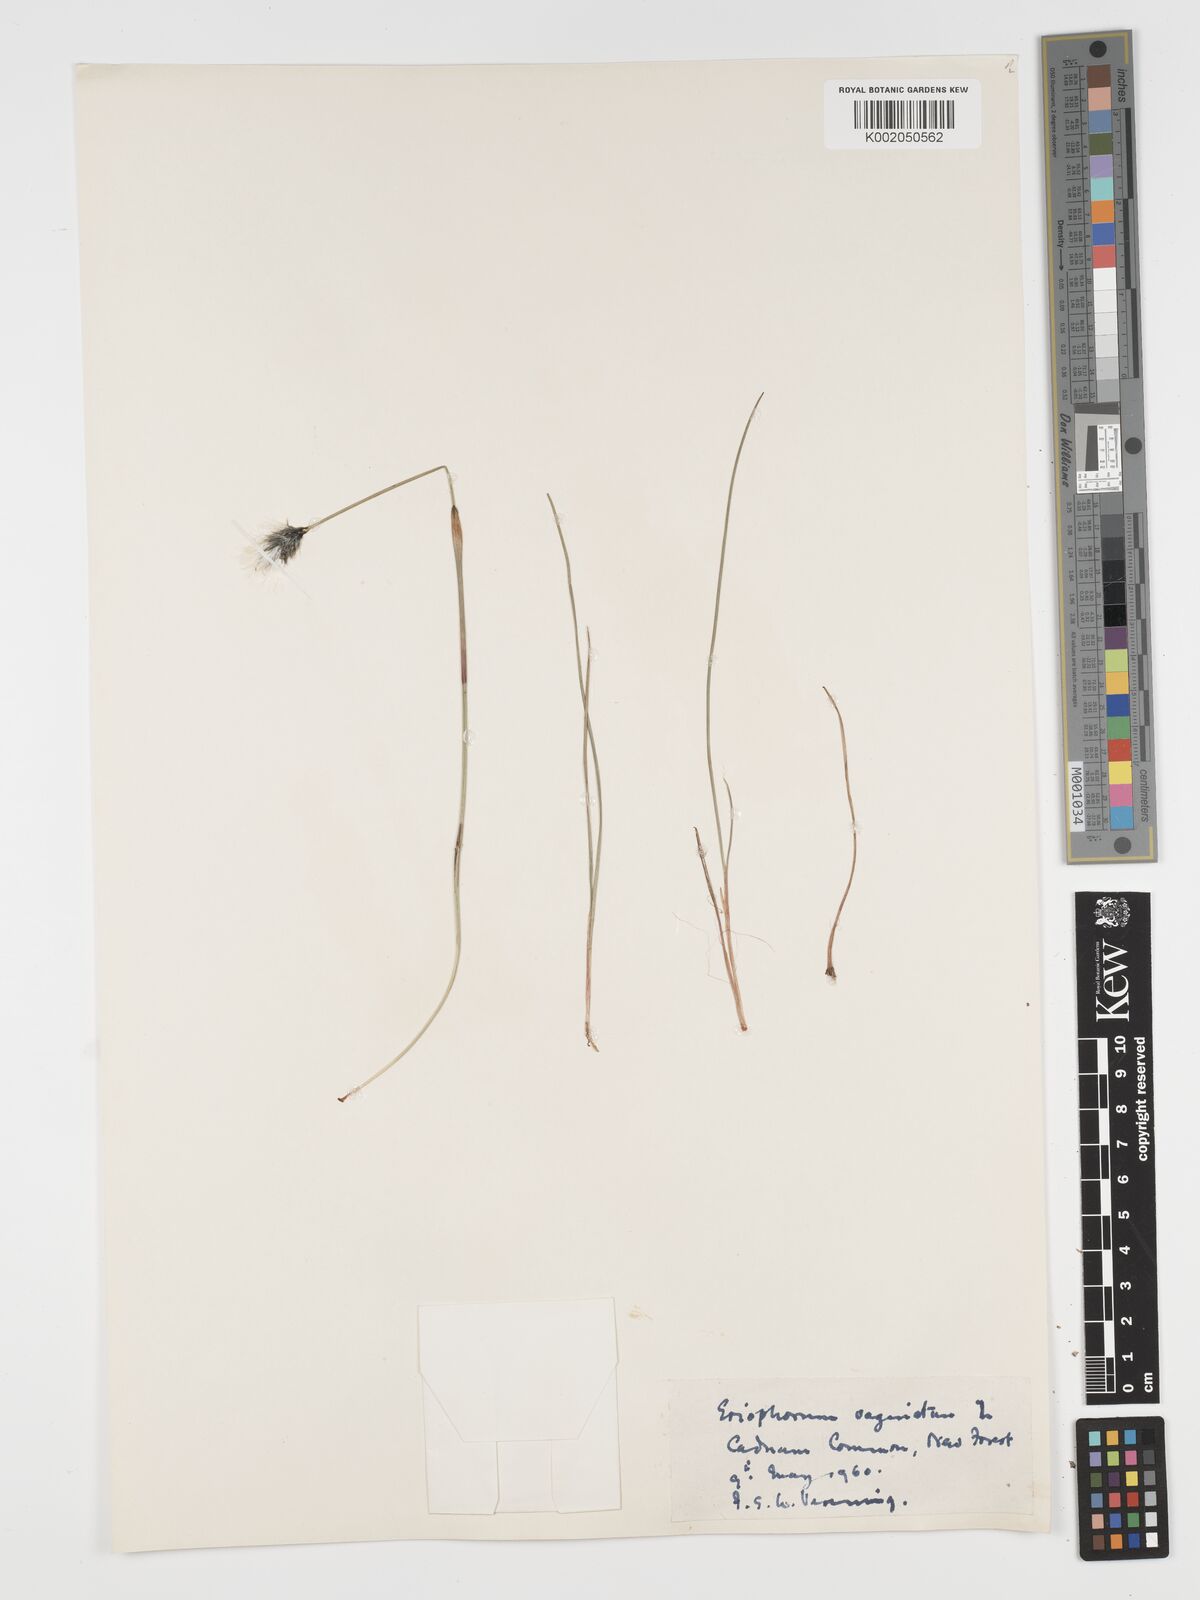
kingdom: Plantae
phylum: Tracheophyta
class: Liliopsida
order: Poales
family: Cyperaceae
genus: Eriophorum
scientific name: Eriophorum vaginatum
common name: Hare's-tail cottongrass
